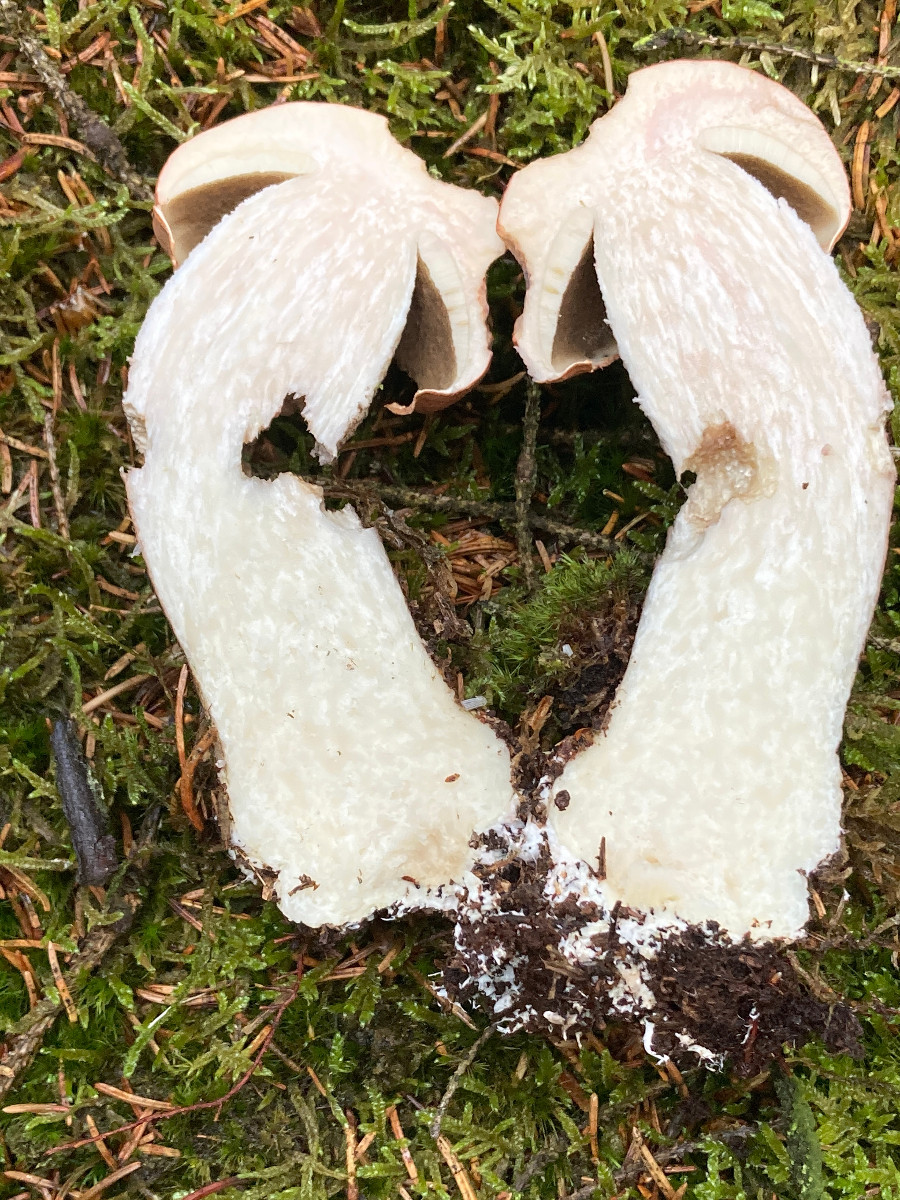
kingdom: Fungi
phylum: Basidiomycota
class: Agaricomycetes
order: Boletales
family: Boletaceae
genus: Leccinum
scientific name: Leccinum vulpinum
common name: fyrre-skælrørhat
